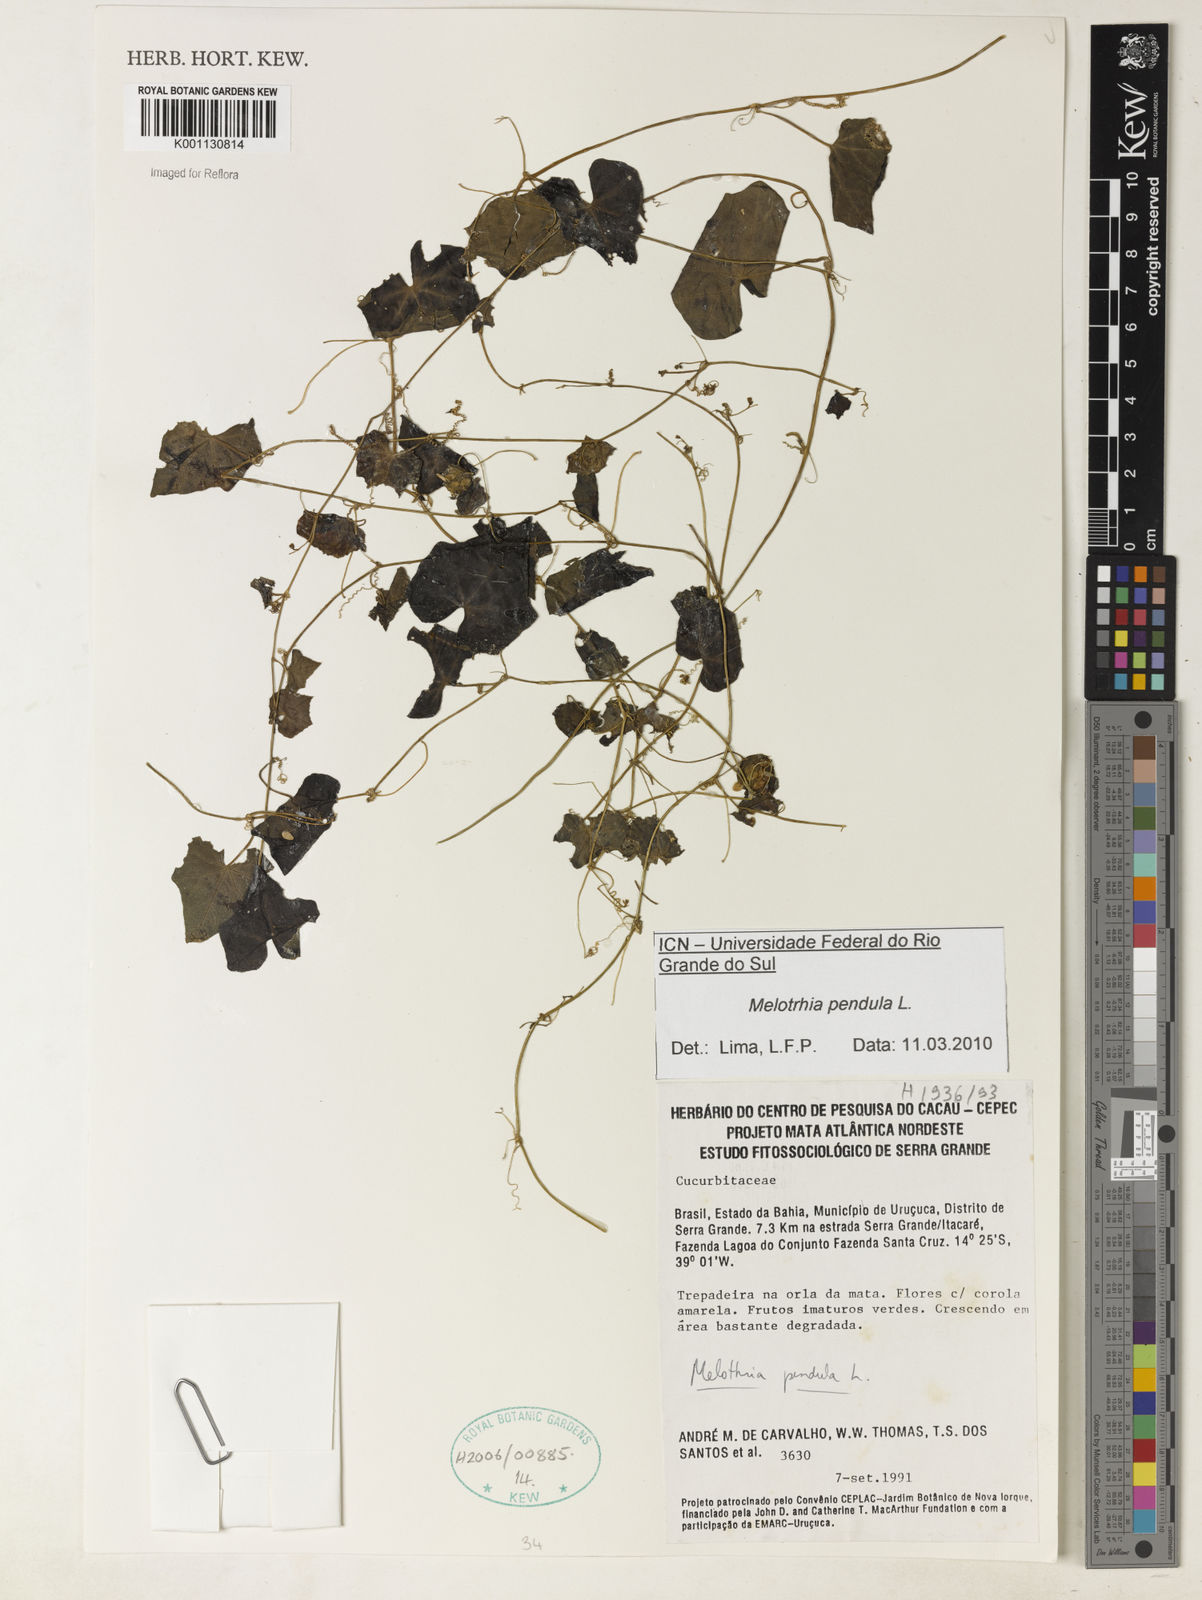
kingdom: Plantae
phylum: Tracheophyta
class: Magnoliopsida
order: Cucurbitales
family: Cucurbitaceae
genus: Melothria
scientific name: Melothria pendula
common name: Creeping-cucumber
